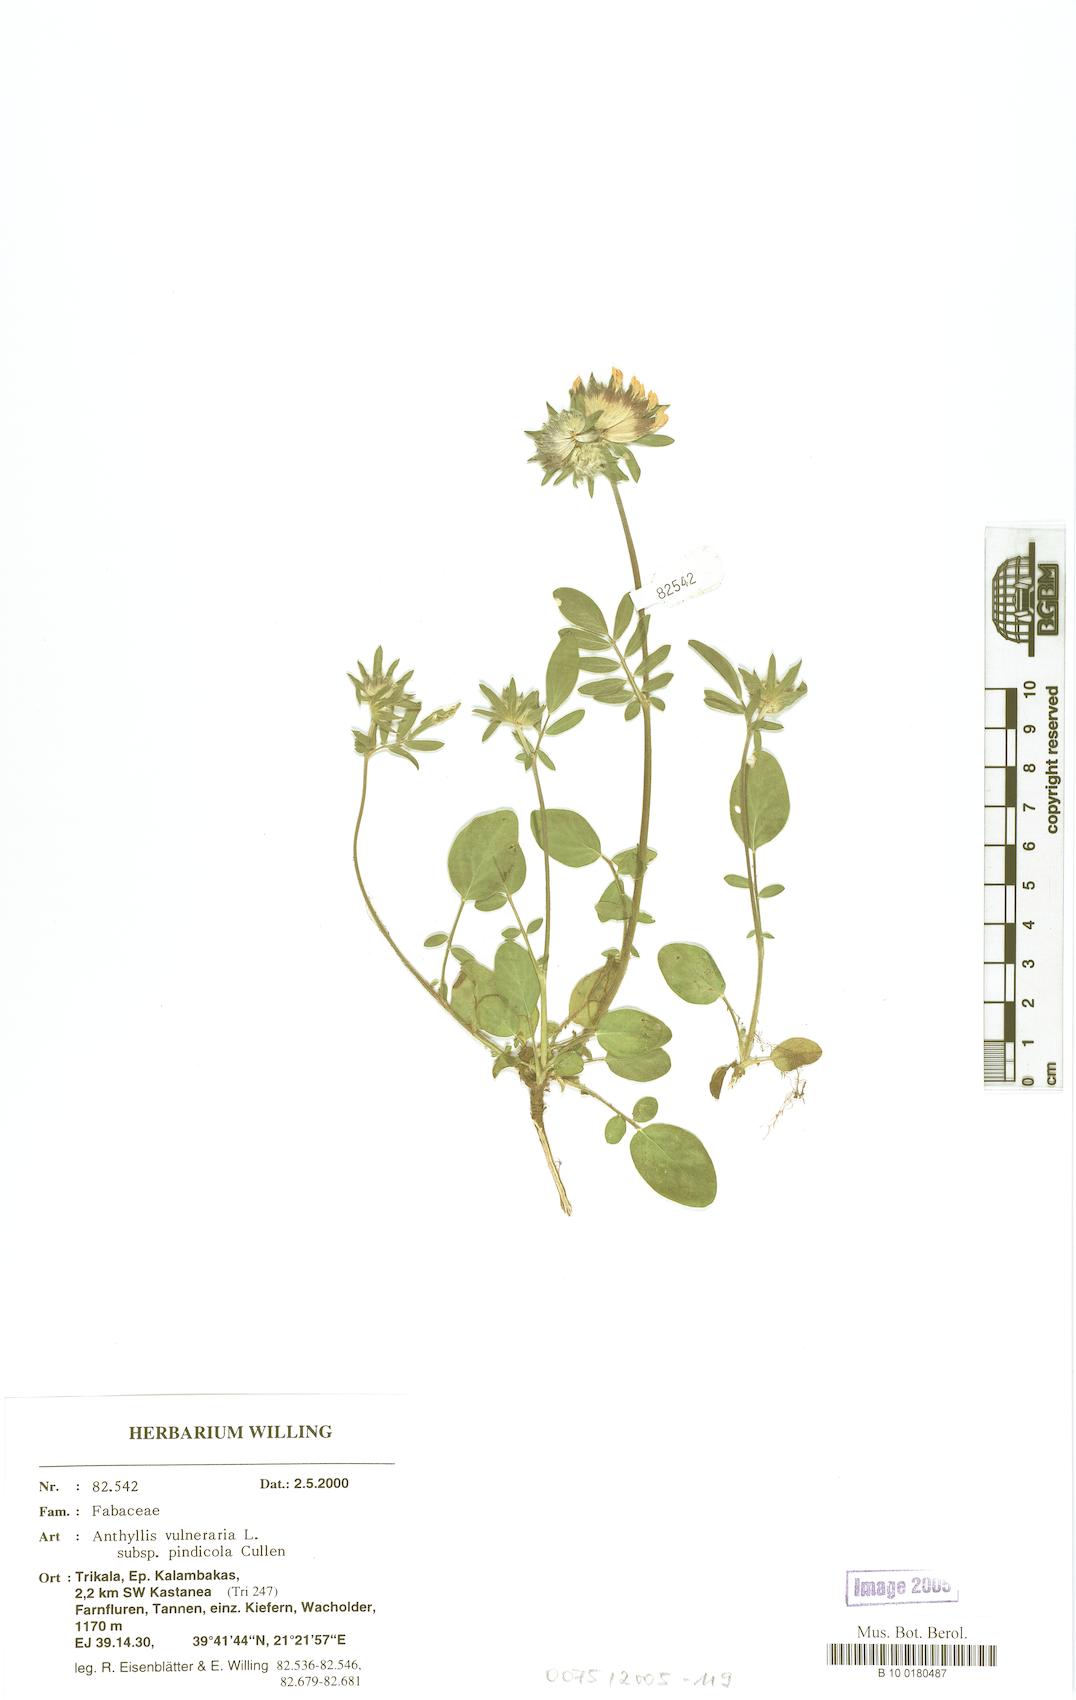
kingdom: Plantae
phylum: Tracheophyta
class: Magnoliopsida
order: Fabales
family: Fabaceae
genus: Anthyllis
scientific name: Anthyllis vulneraria
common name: Kidney vetch
